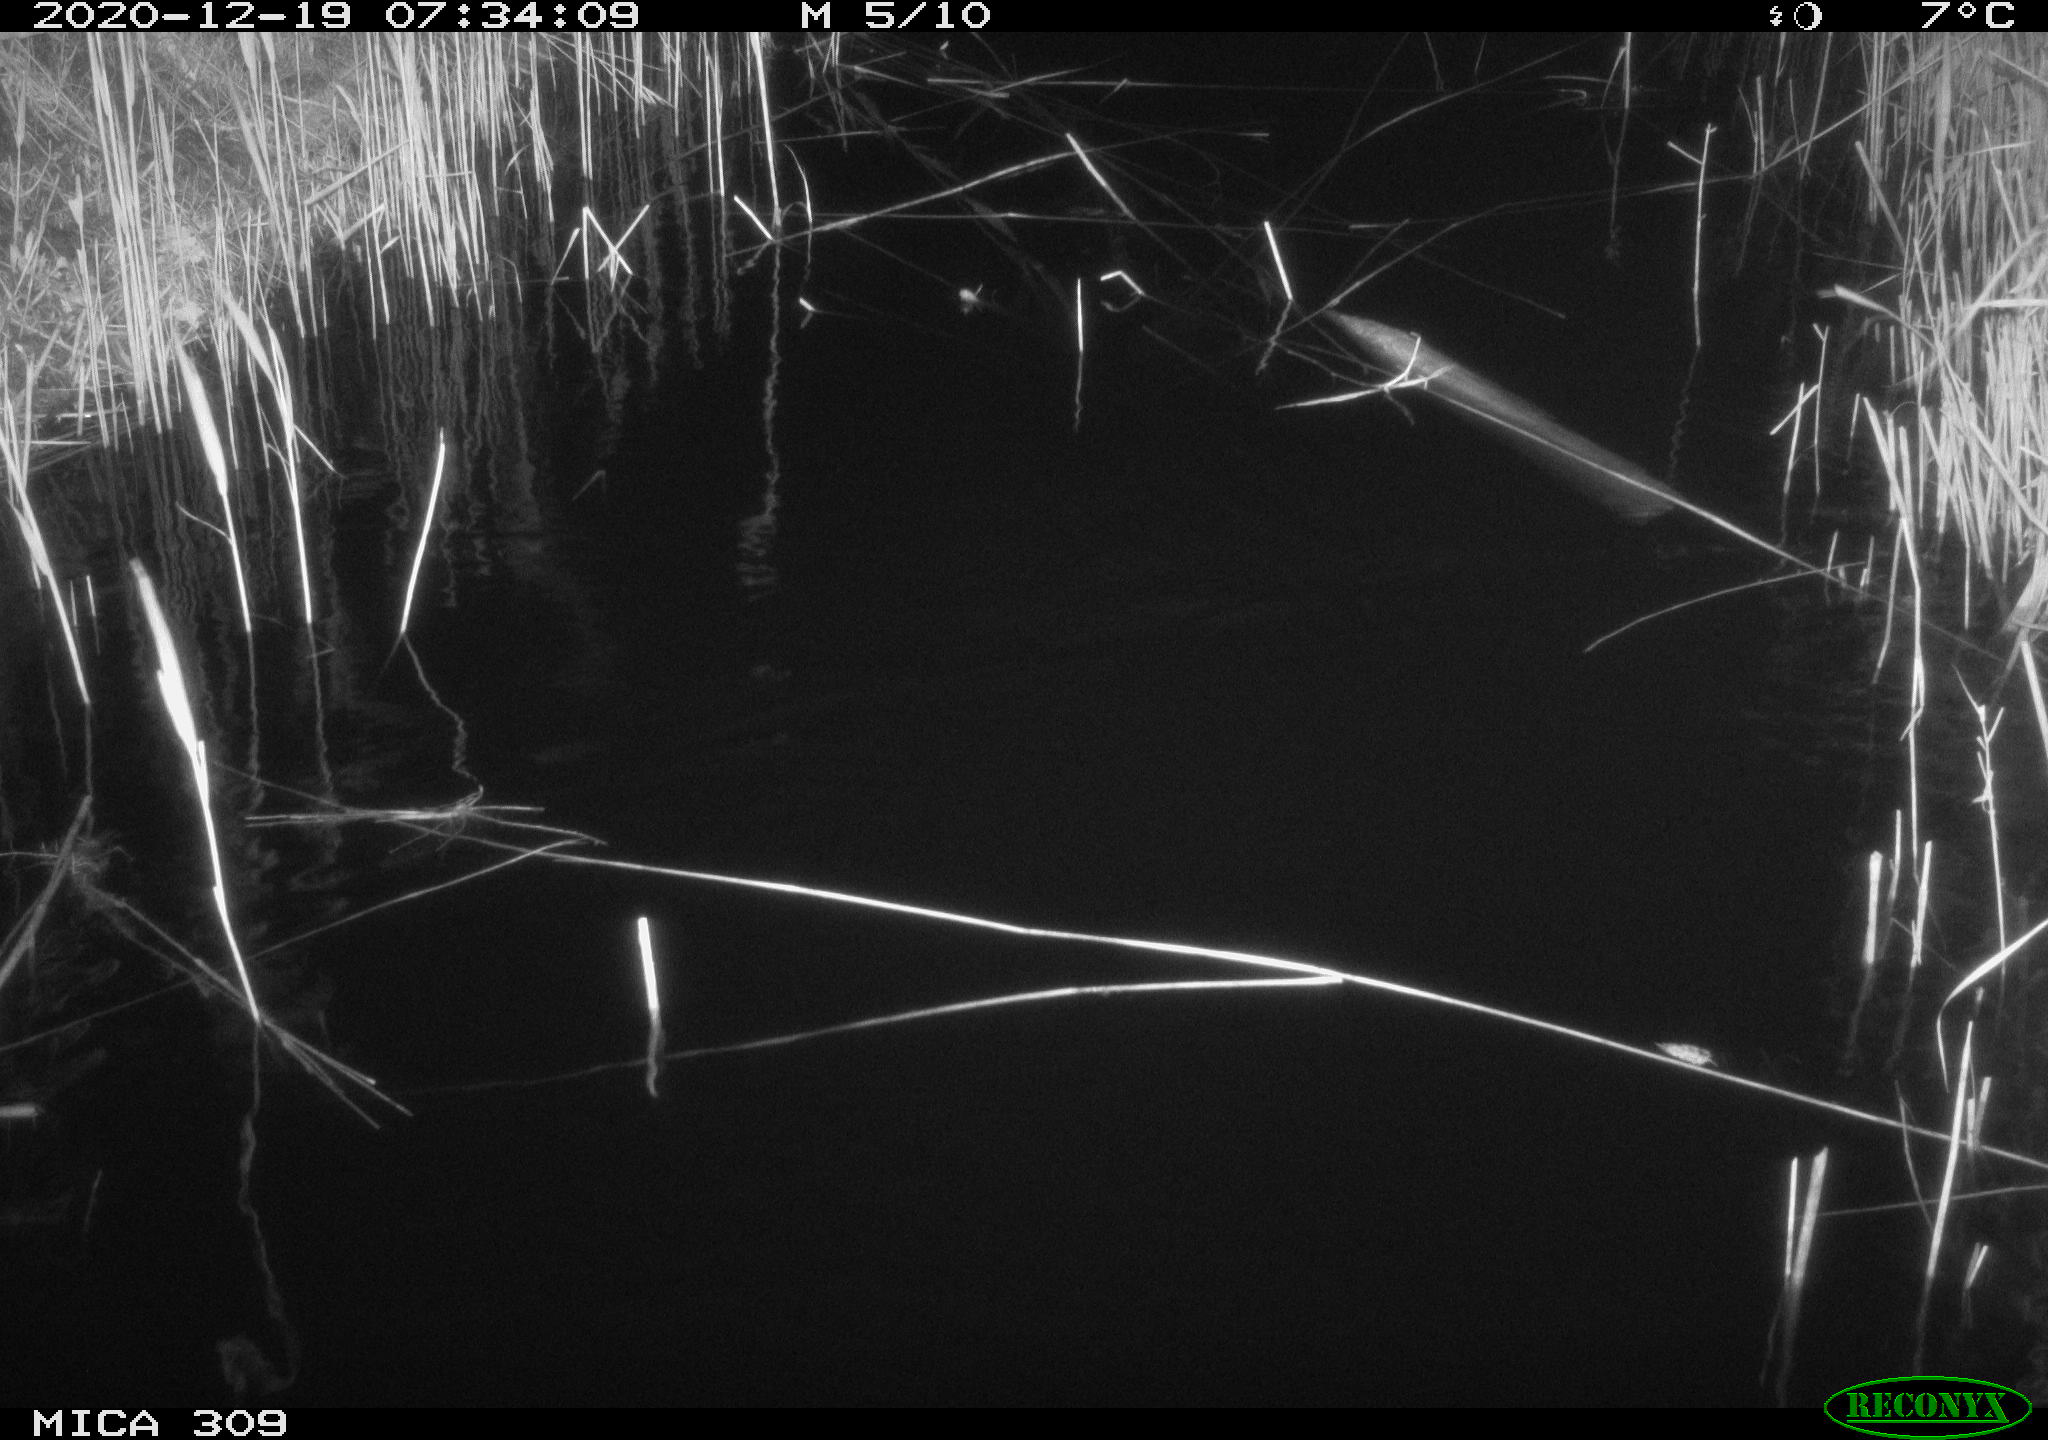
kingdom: Animalia
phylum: Chordata
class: Mammalia
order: Rodentia
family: Muridae
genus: Rattus
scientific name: Rattus norvegicus
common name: Brown rat
